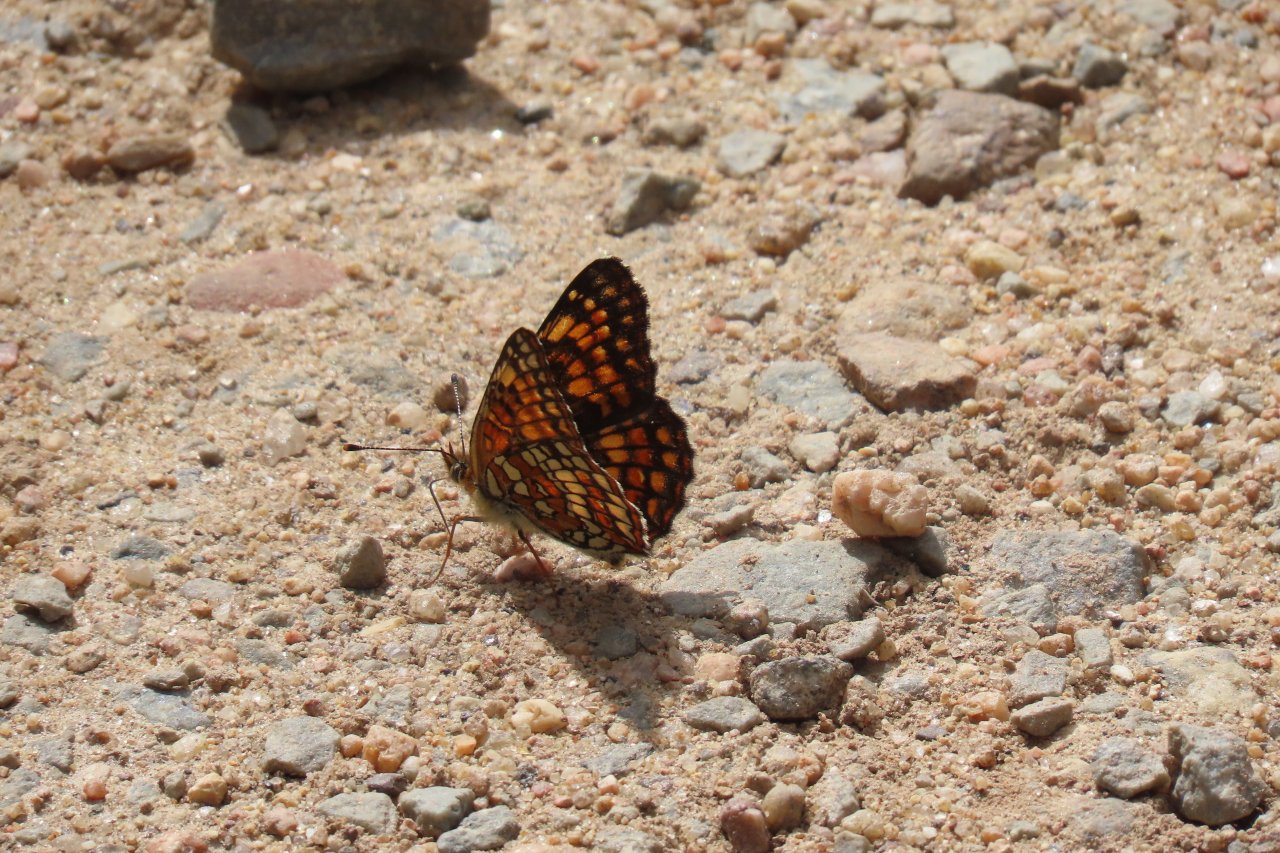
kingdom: Animalia
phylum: Arthropoda
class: Insecta
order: Lepidoptera
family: Nymphalidae
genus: Chlosyne
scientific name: Chlosyne palla
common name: Northern Checkerspot
